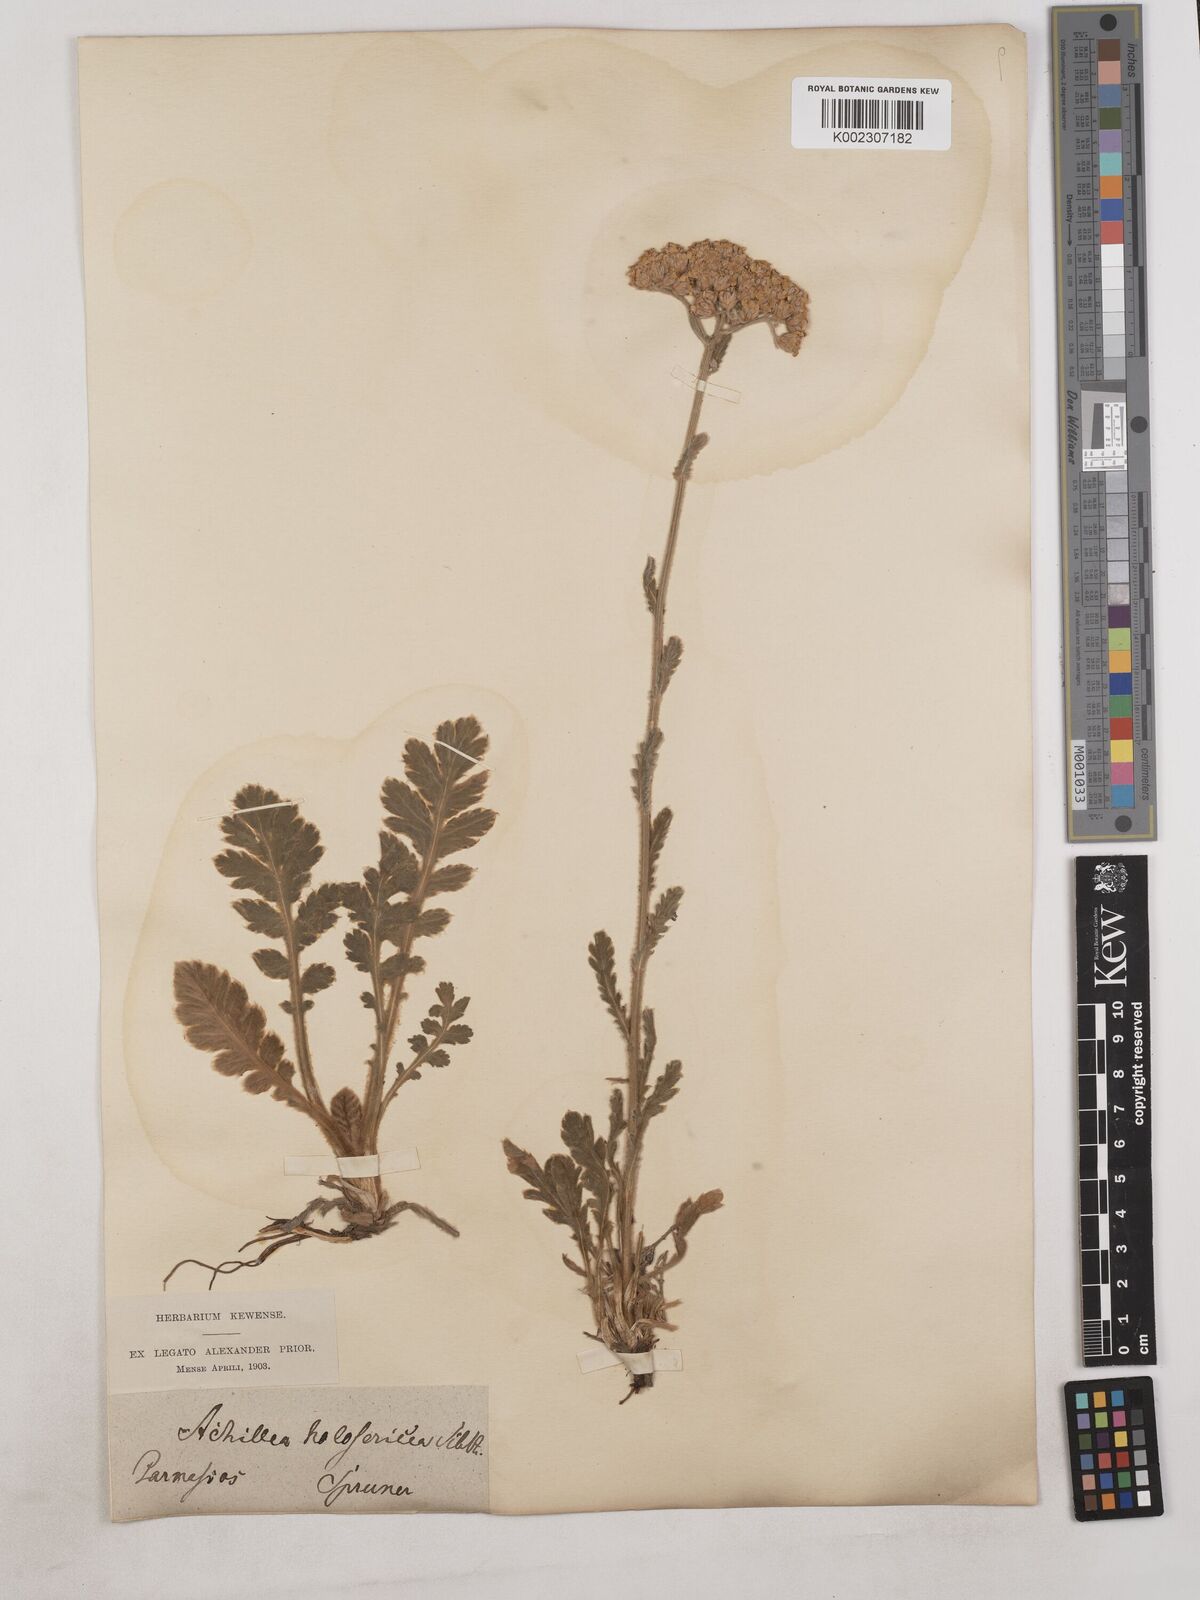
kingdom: Plantae
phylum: Tracheophyta
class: Magnoliopsida
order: Asterales
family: Asteraceae
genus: Achillea
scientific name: Achillea holosericea
